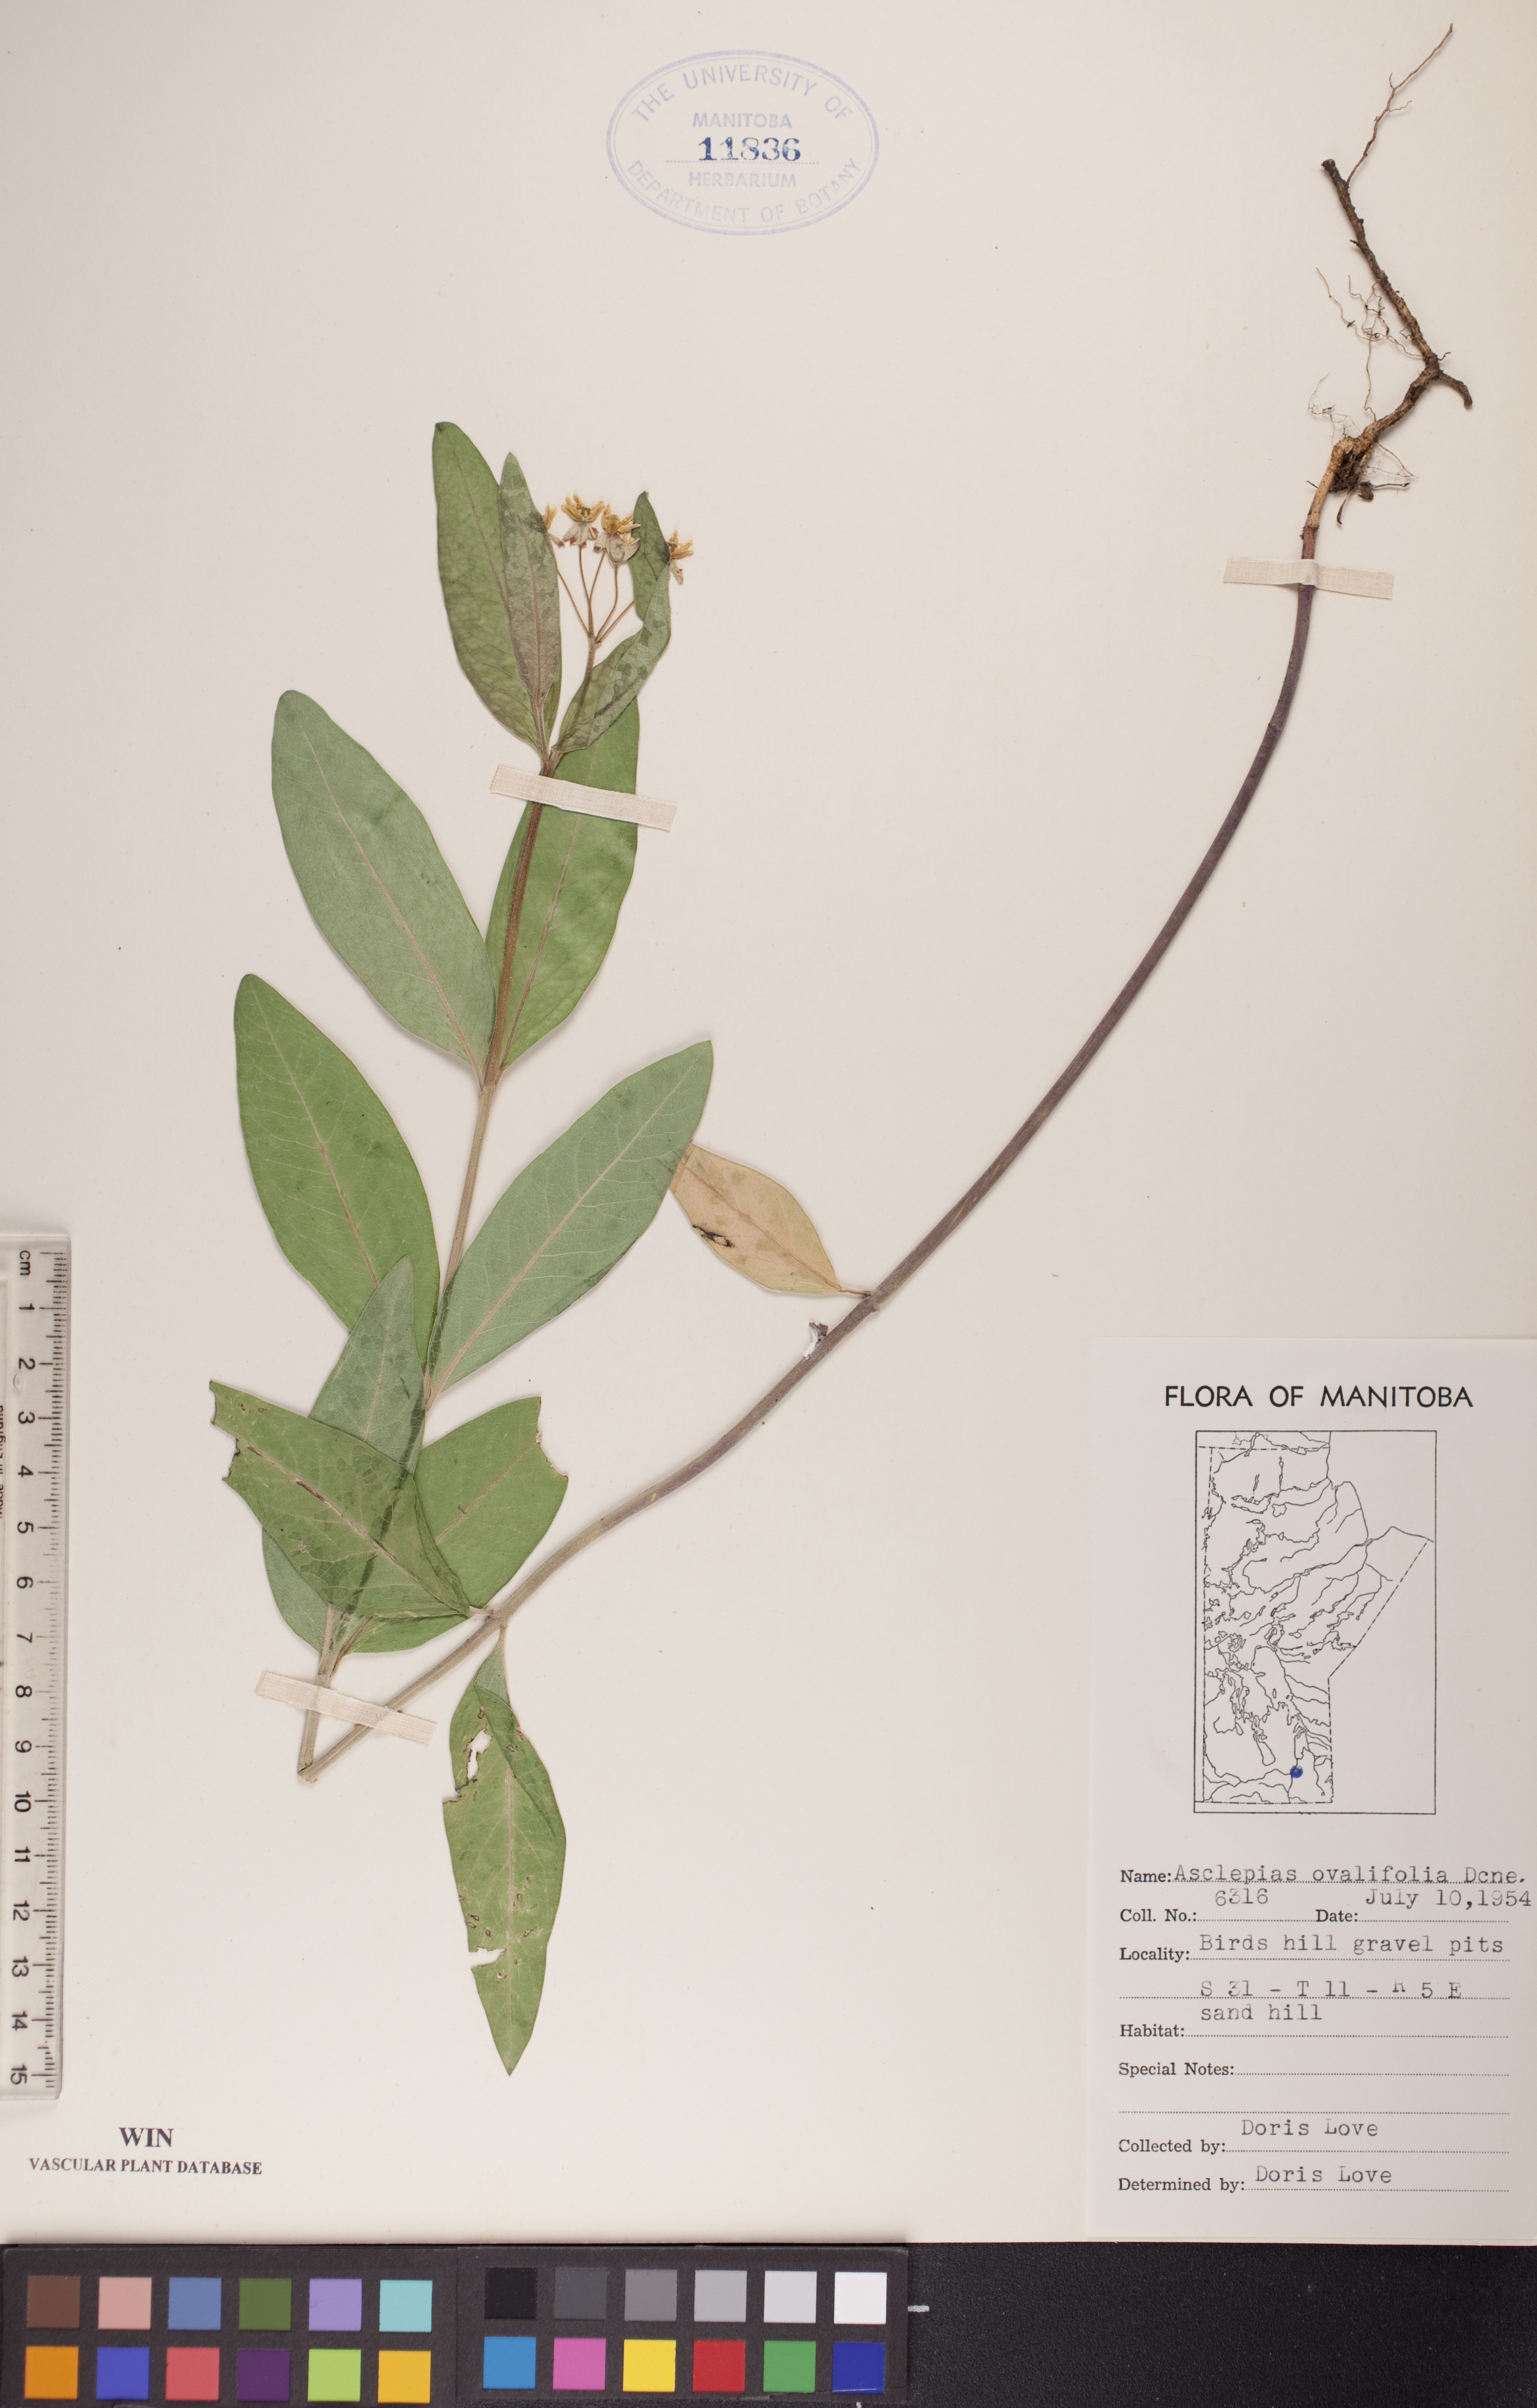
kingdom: Plantae
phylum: Tracheophyta
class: Magnoliopsida
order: Gentianales
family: Apocynaceae
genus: Asclepias
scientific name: Asclepias ovalifolia
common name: Dwarf milkweed
